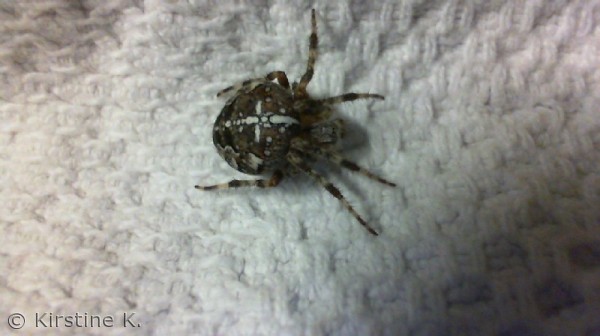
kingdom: Animalia
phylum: Arthropoda
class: Arachnida
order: Araneae
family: Araneidae
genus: Araneus
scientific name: Araneus diadematus
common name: Korsedderkop
